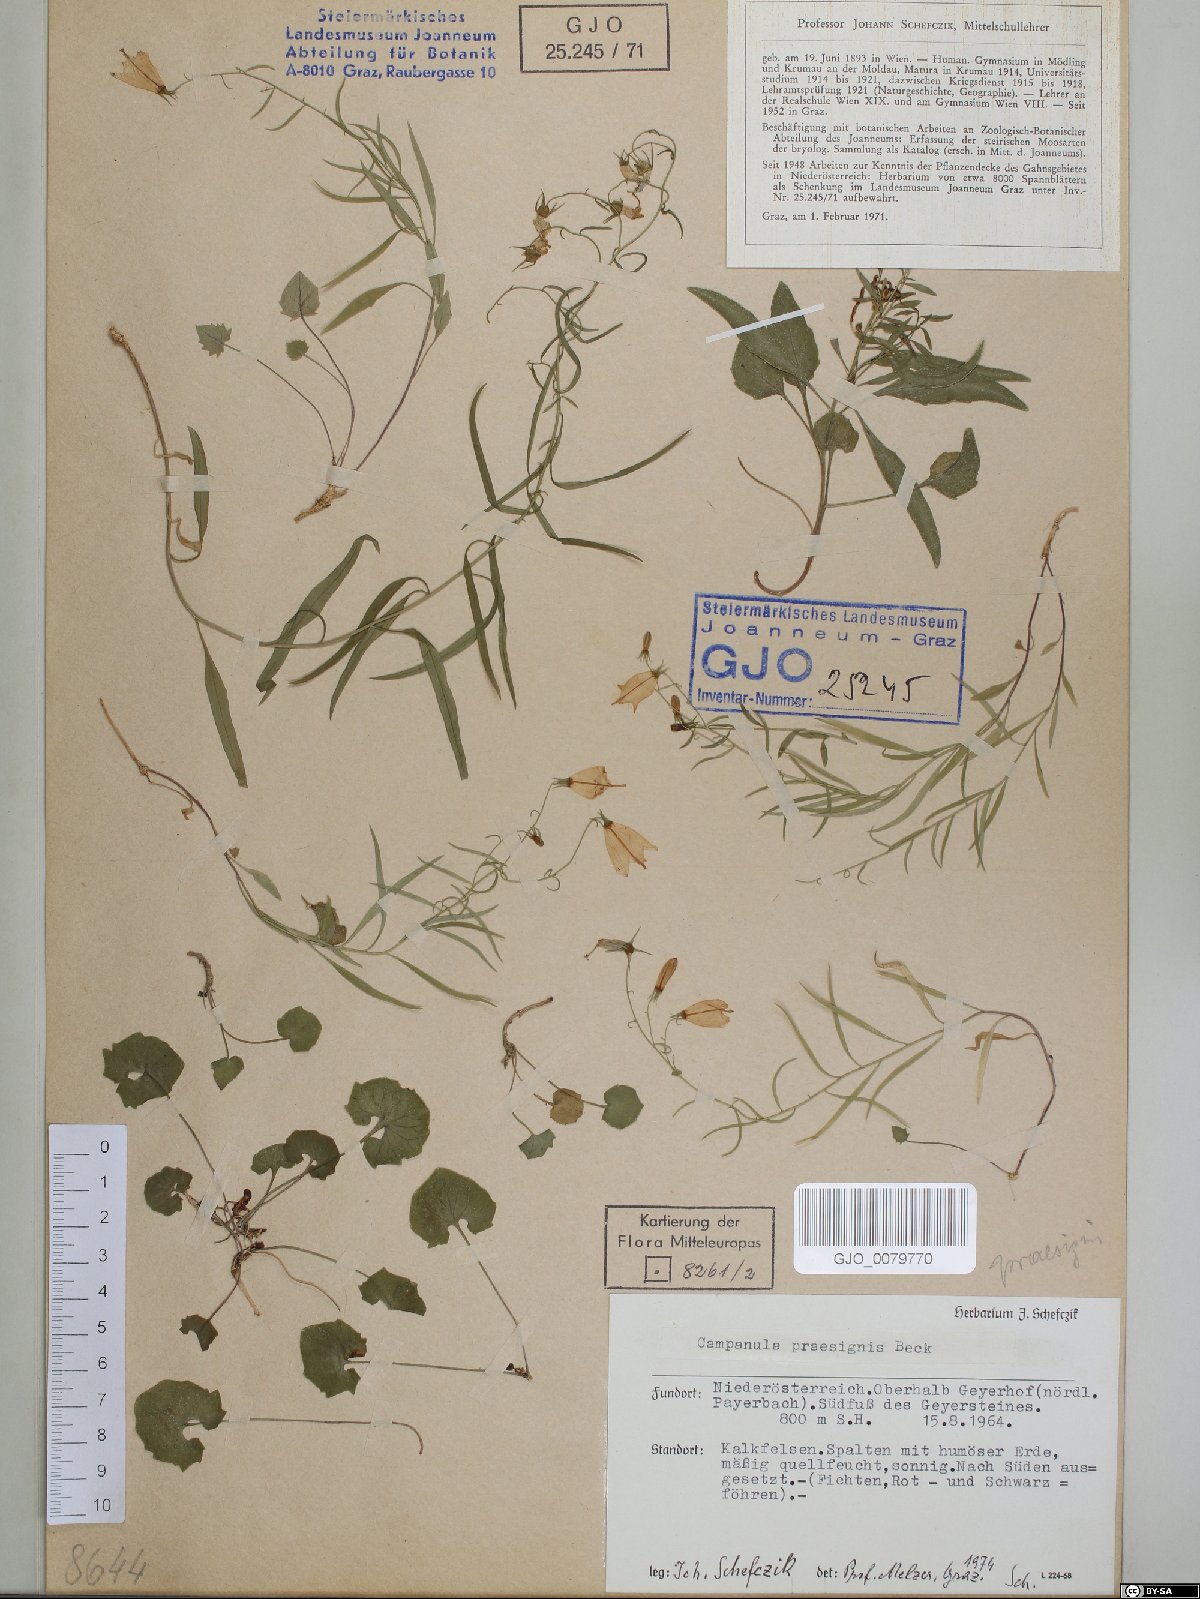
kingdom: Plantae
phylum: Tracheophyta
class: Magnoliopsida
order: Asterales
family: Campanulaceae
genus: Campanula
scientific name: Campanula praesignis
